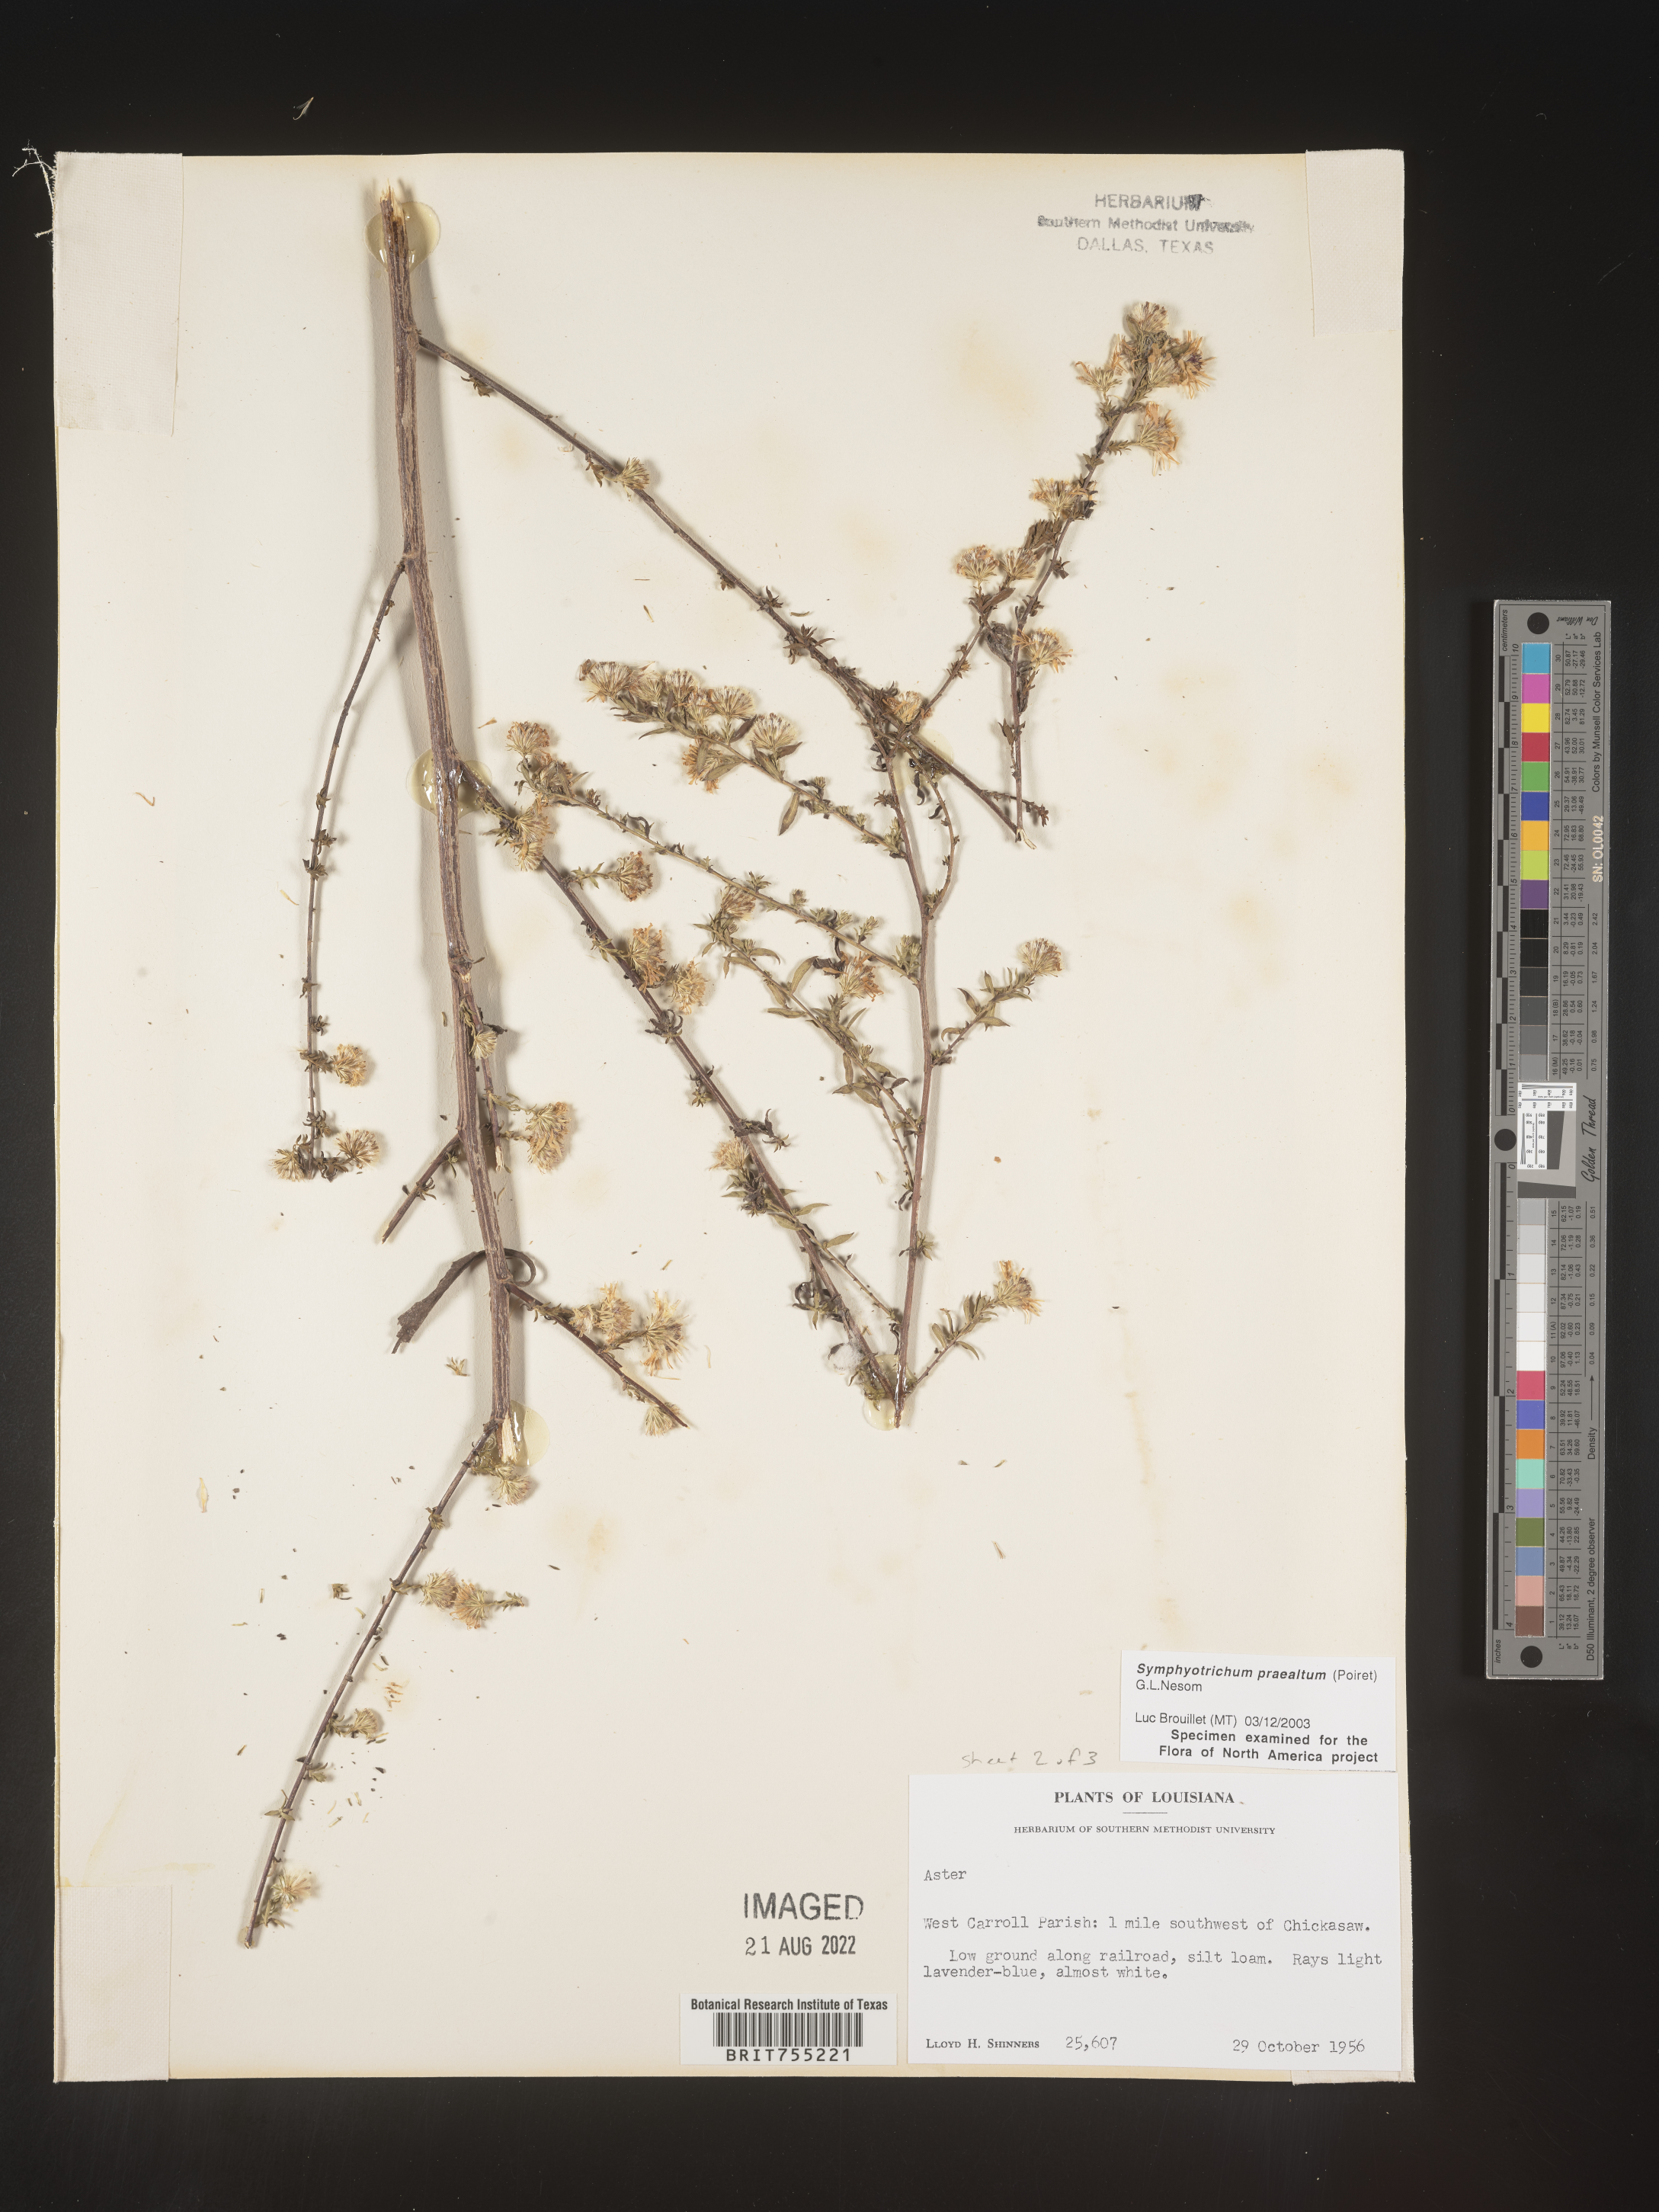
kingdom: Plantae
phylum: Tracheophyta
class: Magnoliopsida
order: Asterales
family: Asteraceae
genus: Symphyotrichum
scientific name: Symphyotrichum praealtum
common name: Willow aster
